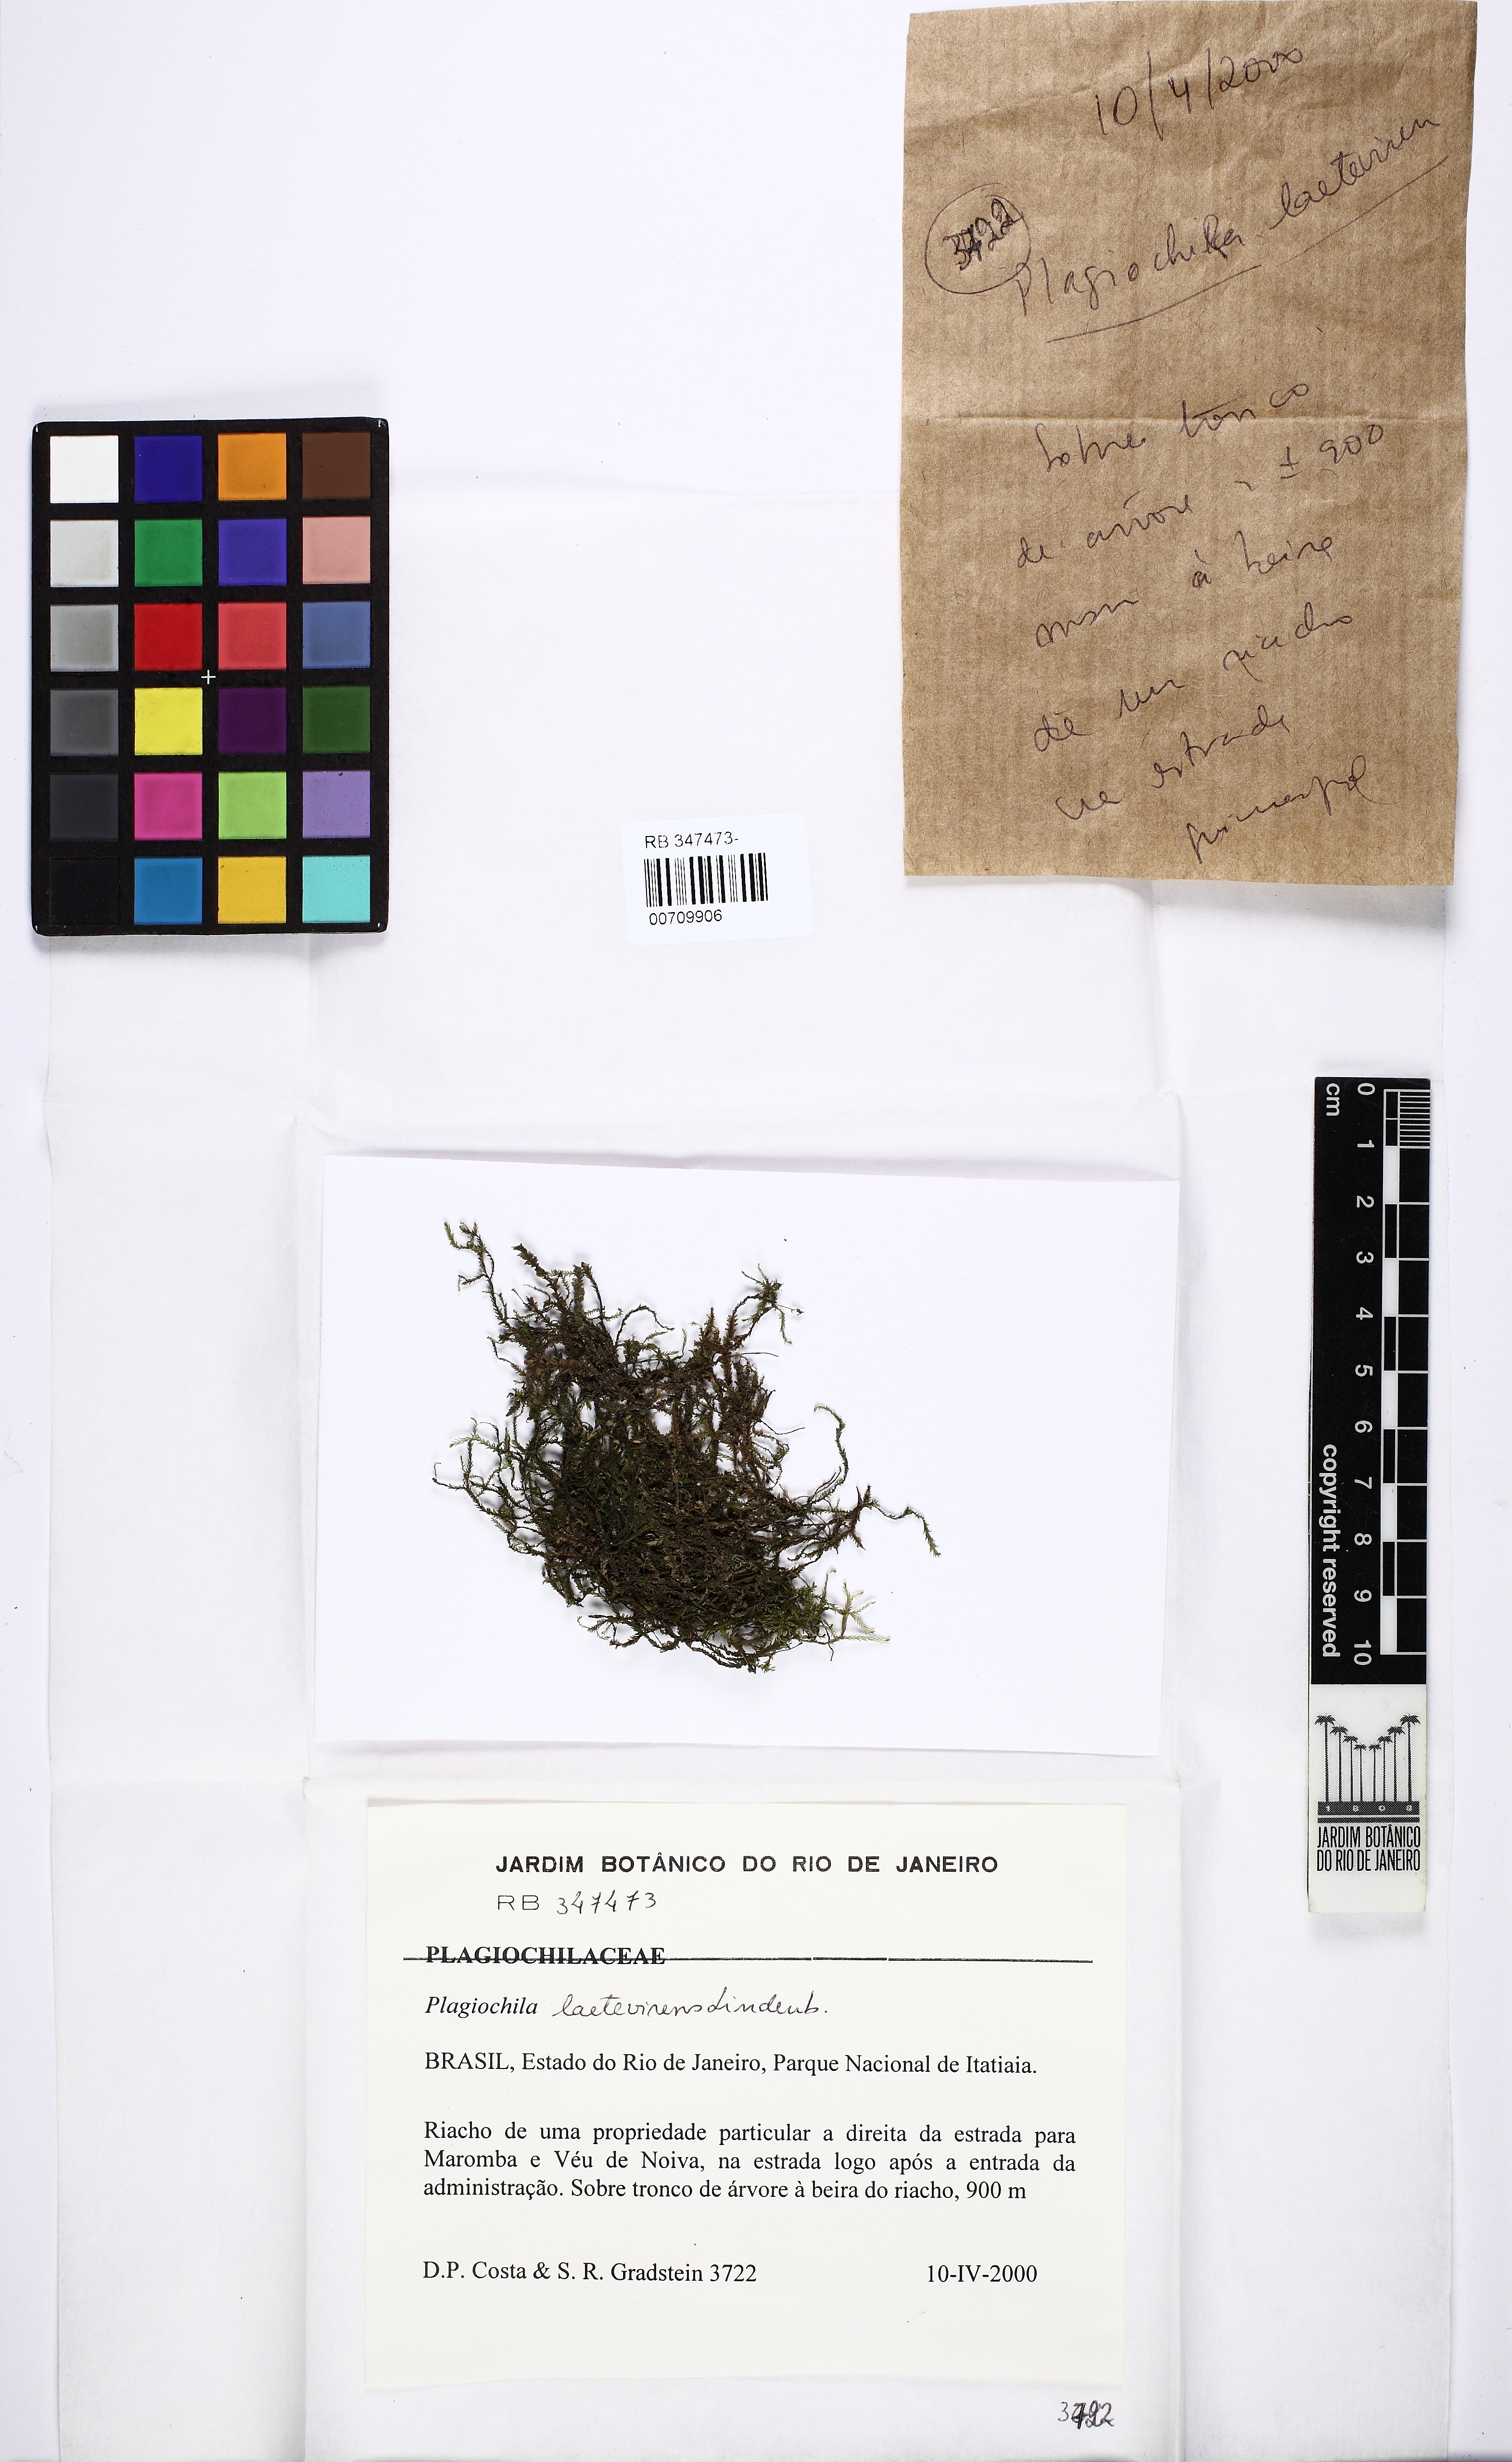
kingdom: Plantae
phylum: Marchantiophyta
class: Jungermanniopsida
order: Jungermanniales
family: Plagiochilaceae
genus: Plagiochila
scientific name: Plagiochila laetevirens
